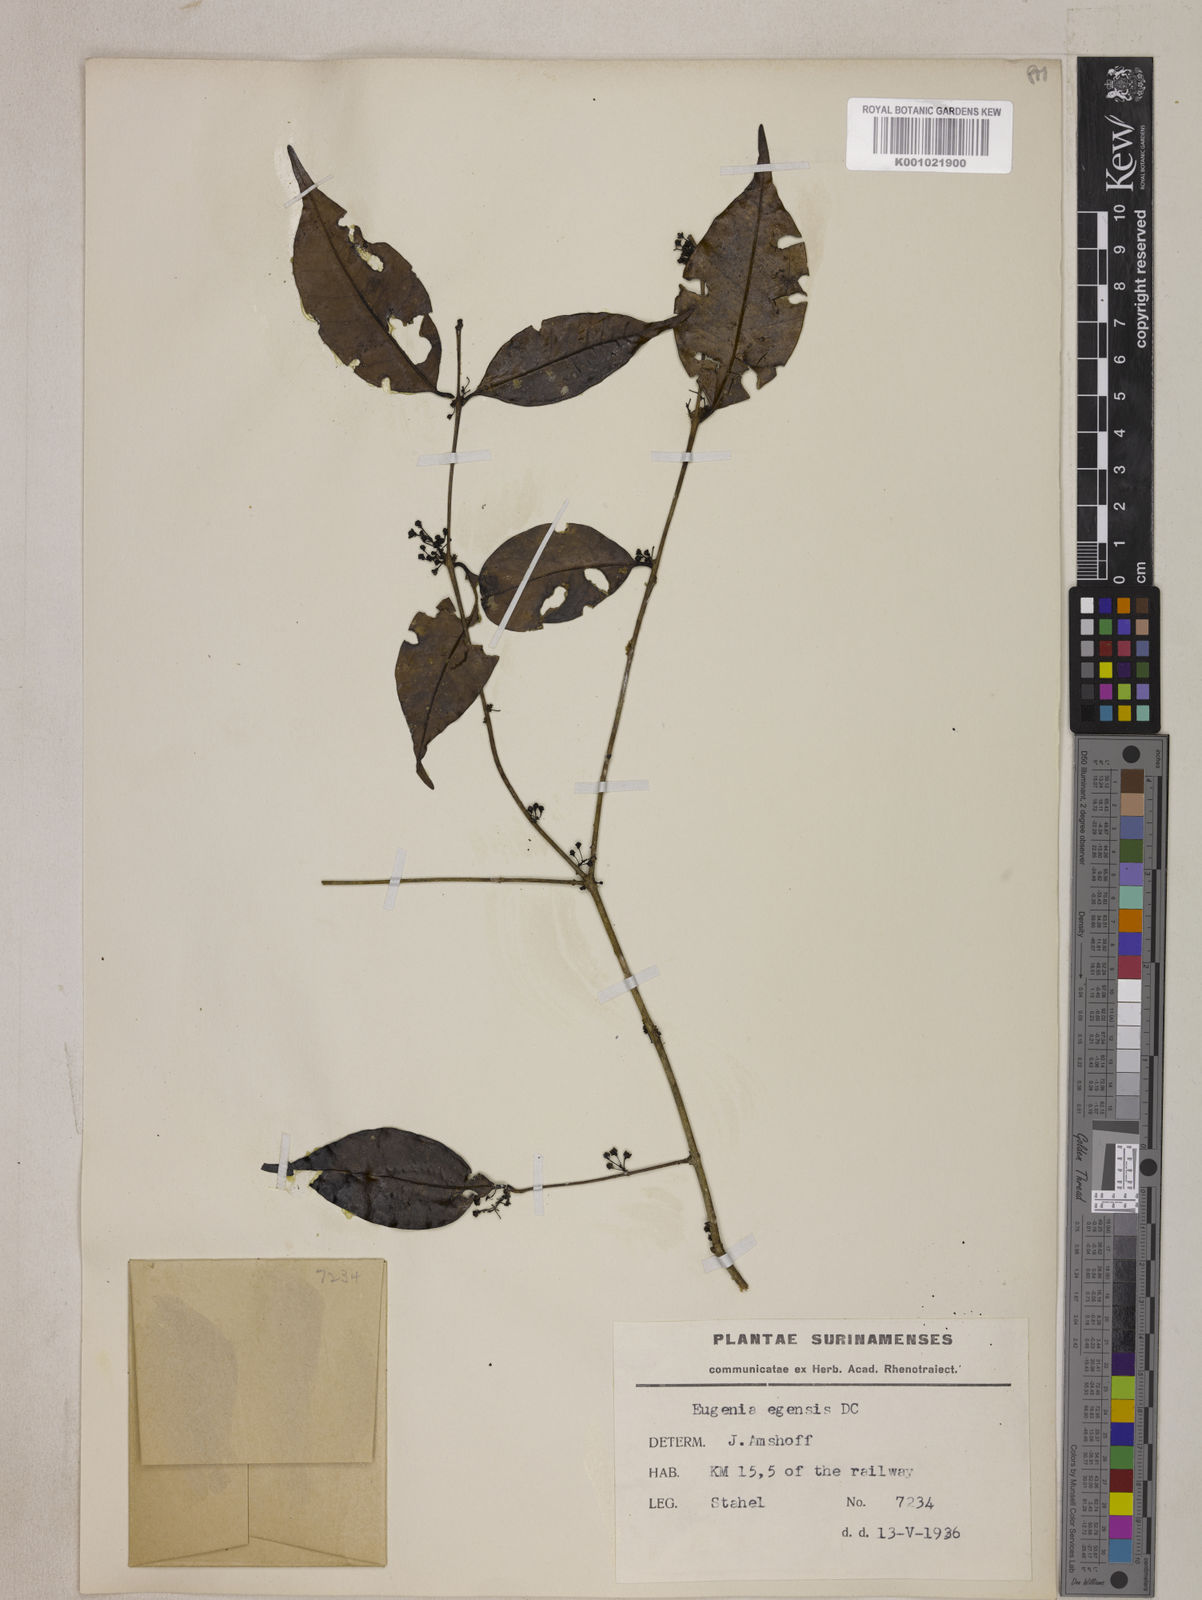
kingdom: Plantae
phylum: Tracheophyta
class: Magnoliopsida
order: Myrtales
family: Myrtaceae
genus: Eugenia
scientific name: Eugenia egensis
